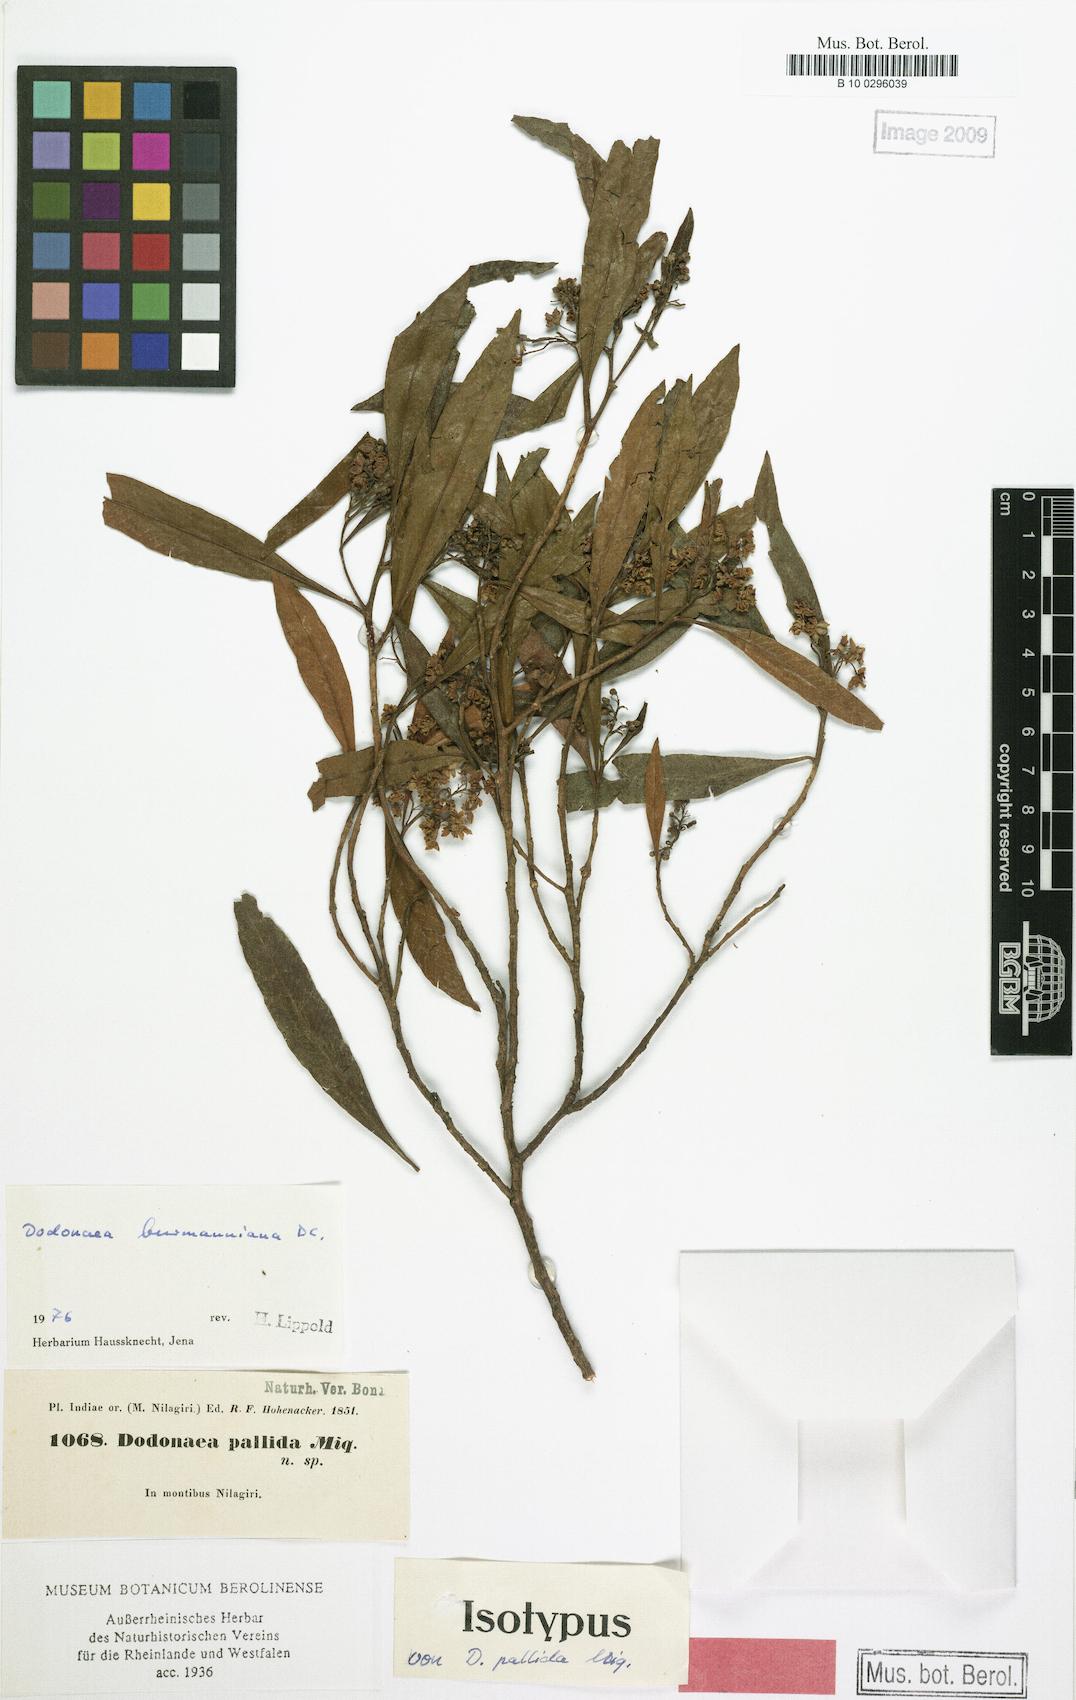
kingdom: Plantae
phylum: Tracheophyta
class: Magnoliopsida
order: Sapindales
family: Sapindaceae
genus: Dodonaea
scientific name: Dodonaea viscosa
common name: Hopbush
